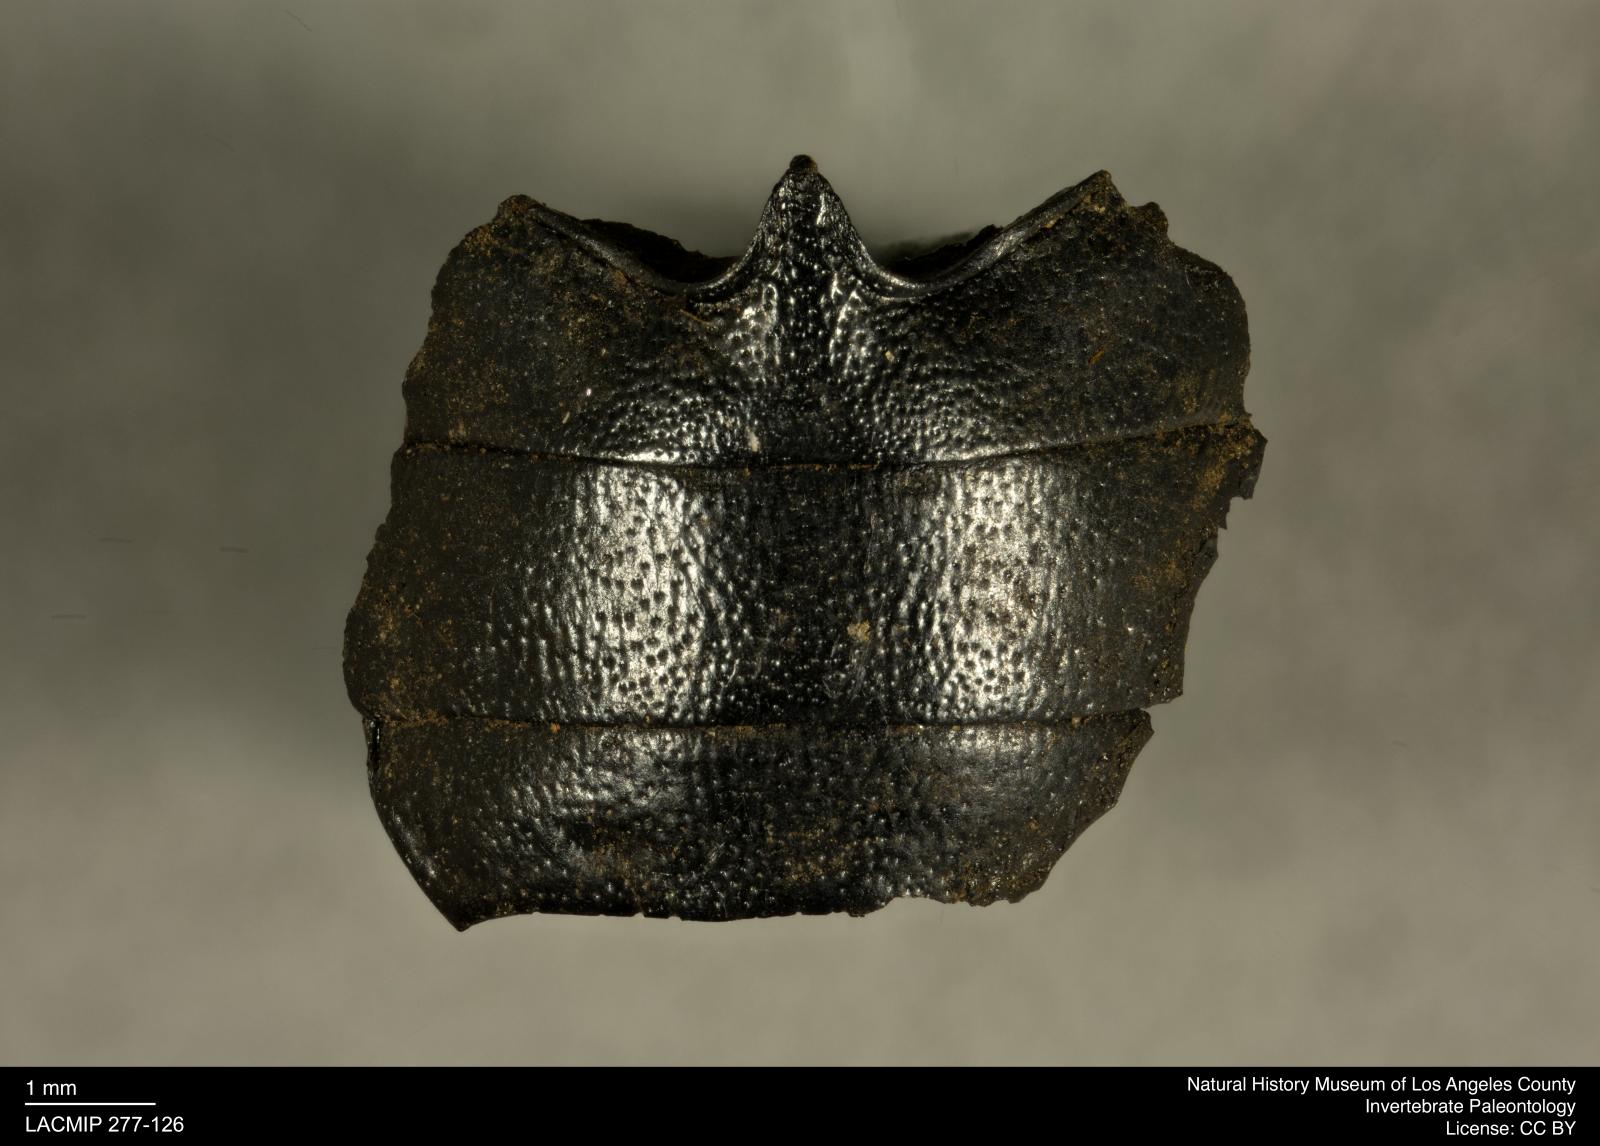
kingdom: Animalia
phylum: Arthropoda
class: Insecta
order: Coleoptera
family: Tenebrionidae
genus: Coniontis
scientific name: Coniontis abdominalis
